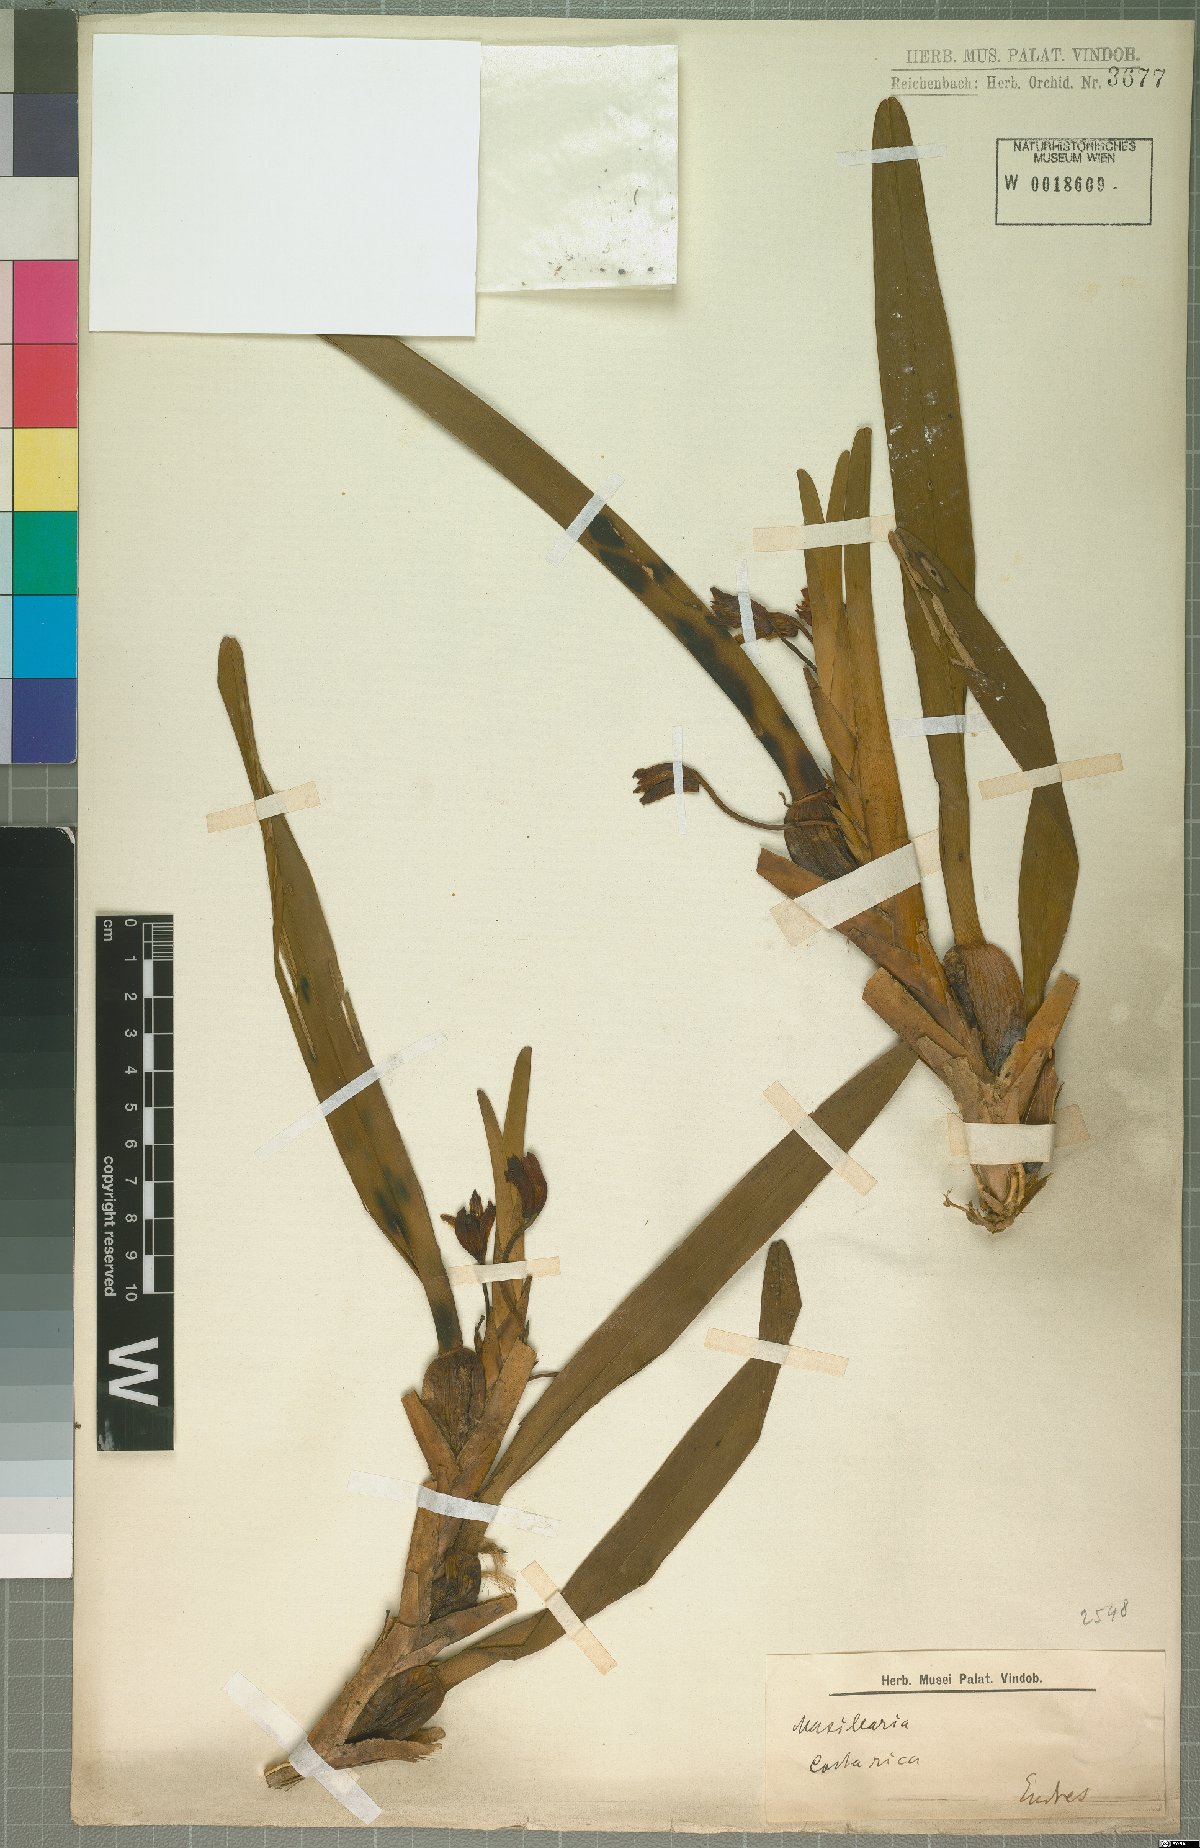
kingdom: Plantae
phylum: Tracheophyta
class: Liliopsida
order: Asparagales
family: Orchidaceae
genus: Maxillaria
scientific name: Maxillaria
